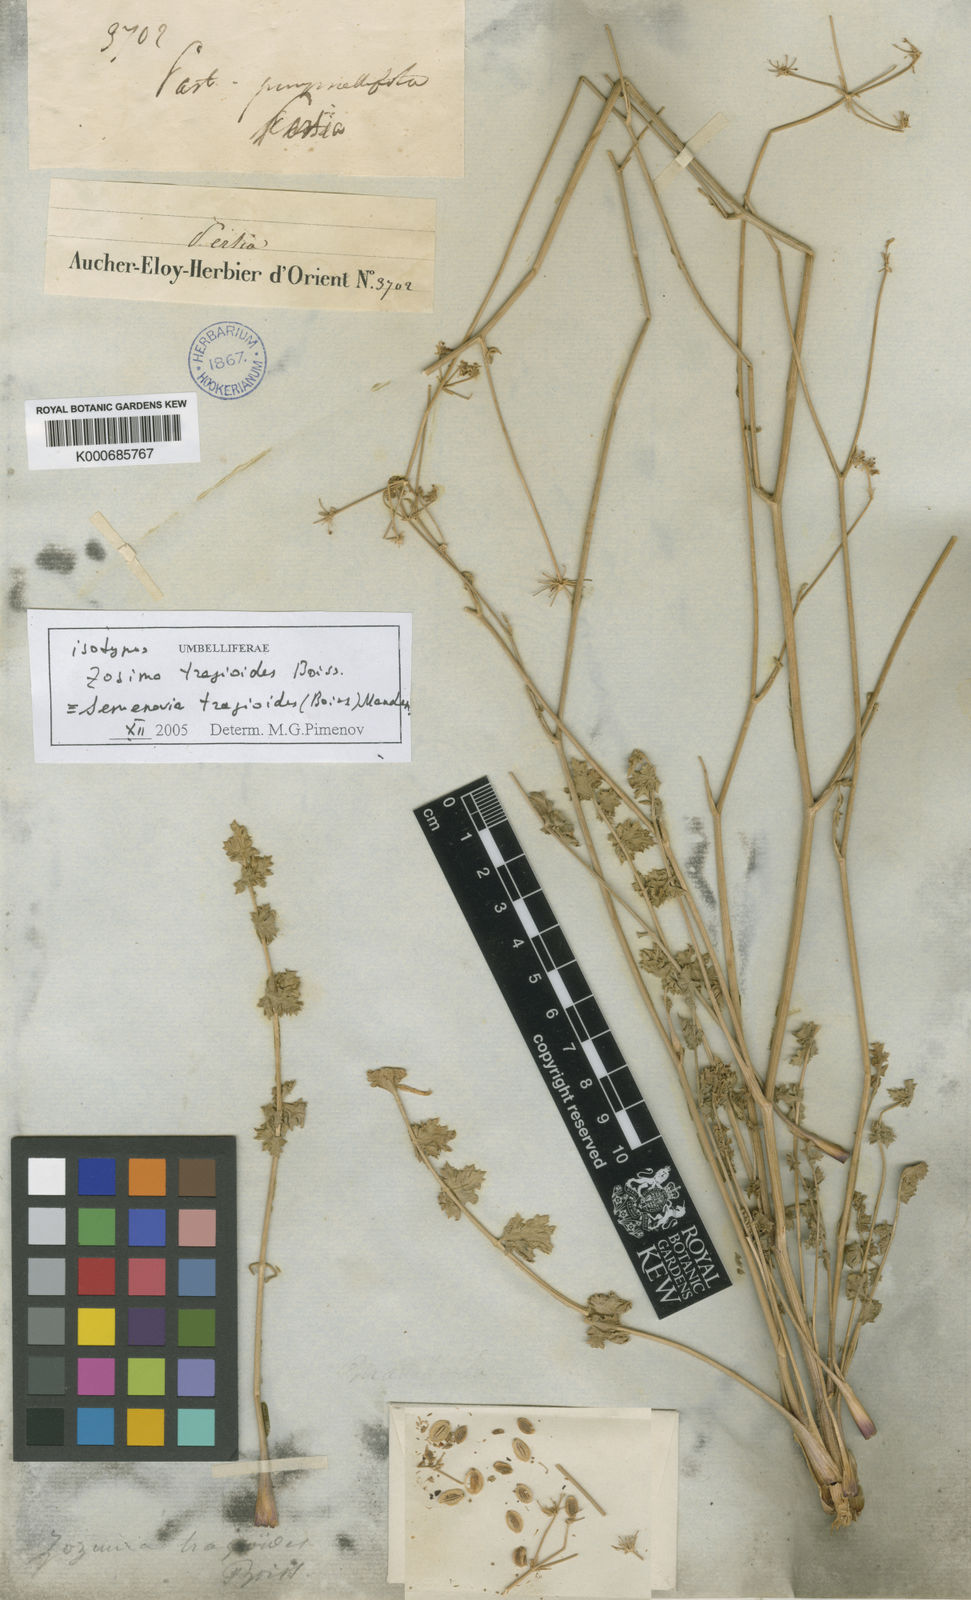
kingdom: Plantae
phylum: Tracheophyta
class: Magnoliopsida
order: Apiales
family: Apiaceae
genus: Semenovia
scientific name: Semenovia tragioides
